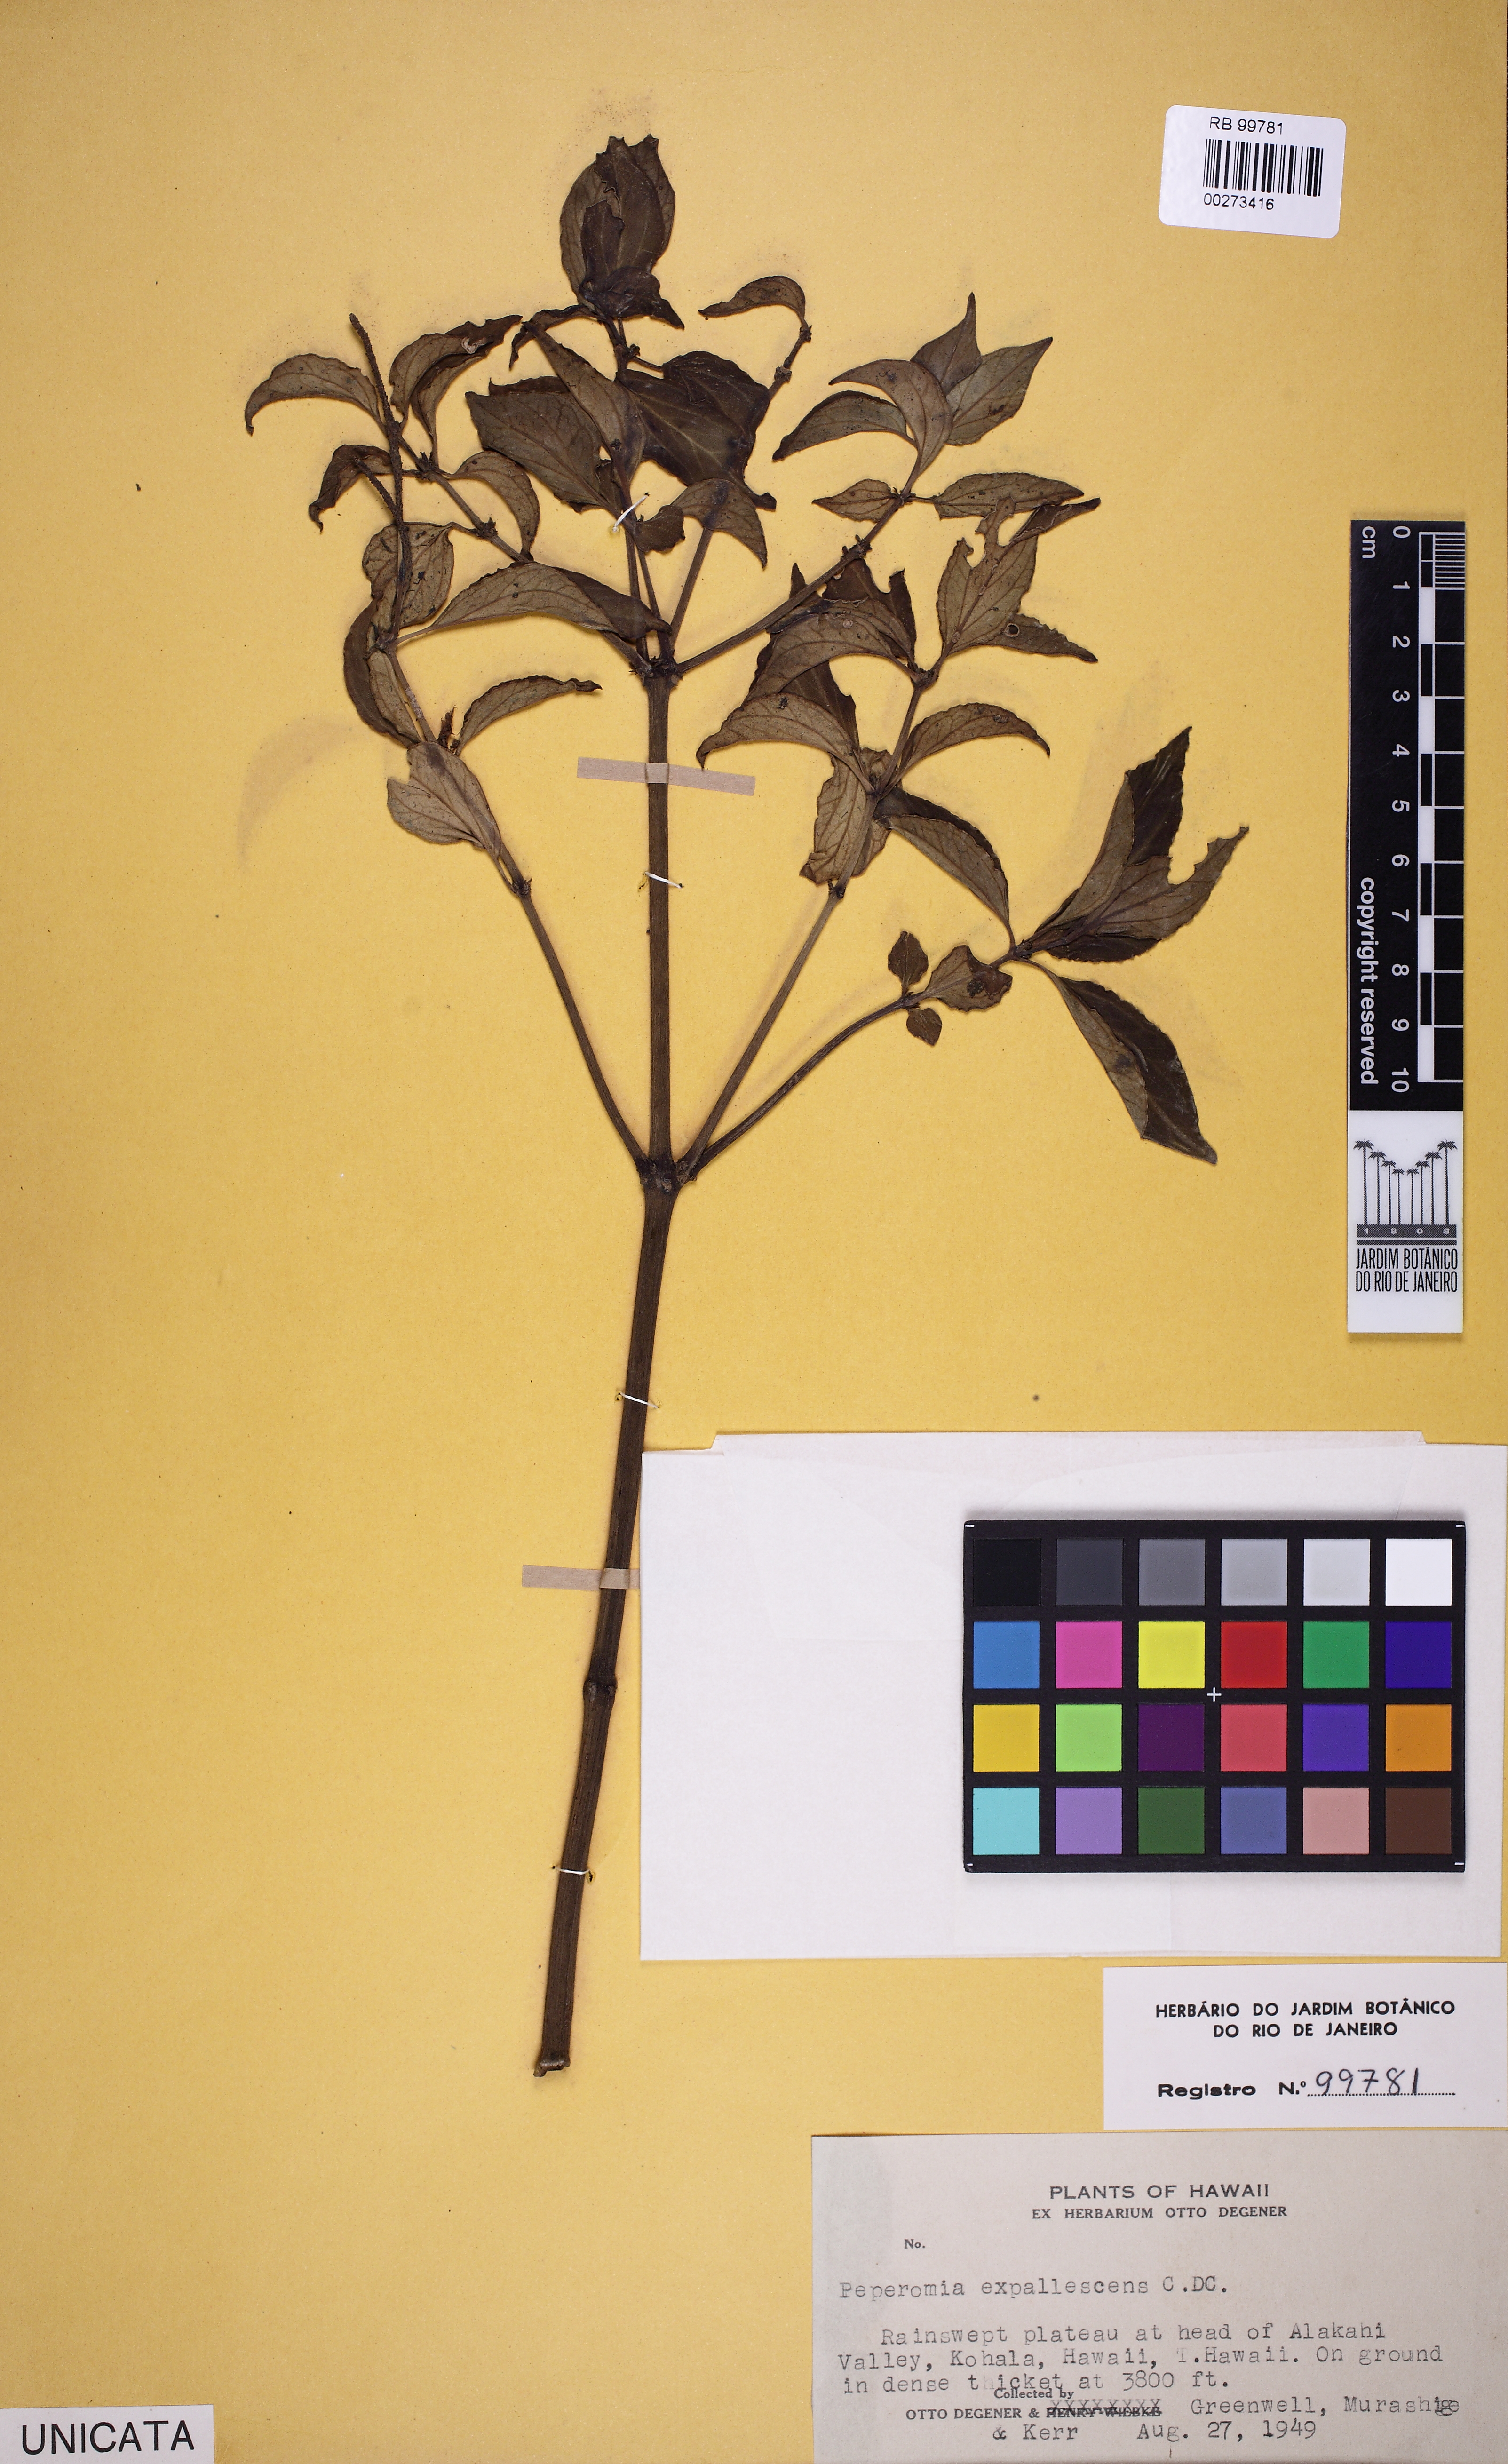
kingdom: Plantae
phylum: Tracheophyta
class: Magnoliopsida
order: Piperales
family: Piperaceae
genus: Peperomia
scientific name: Peperomia expallescens
